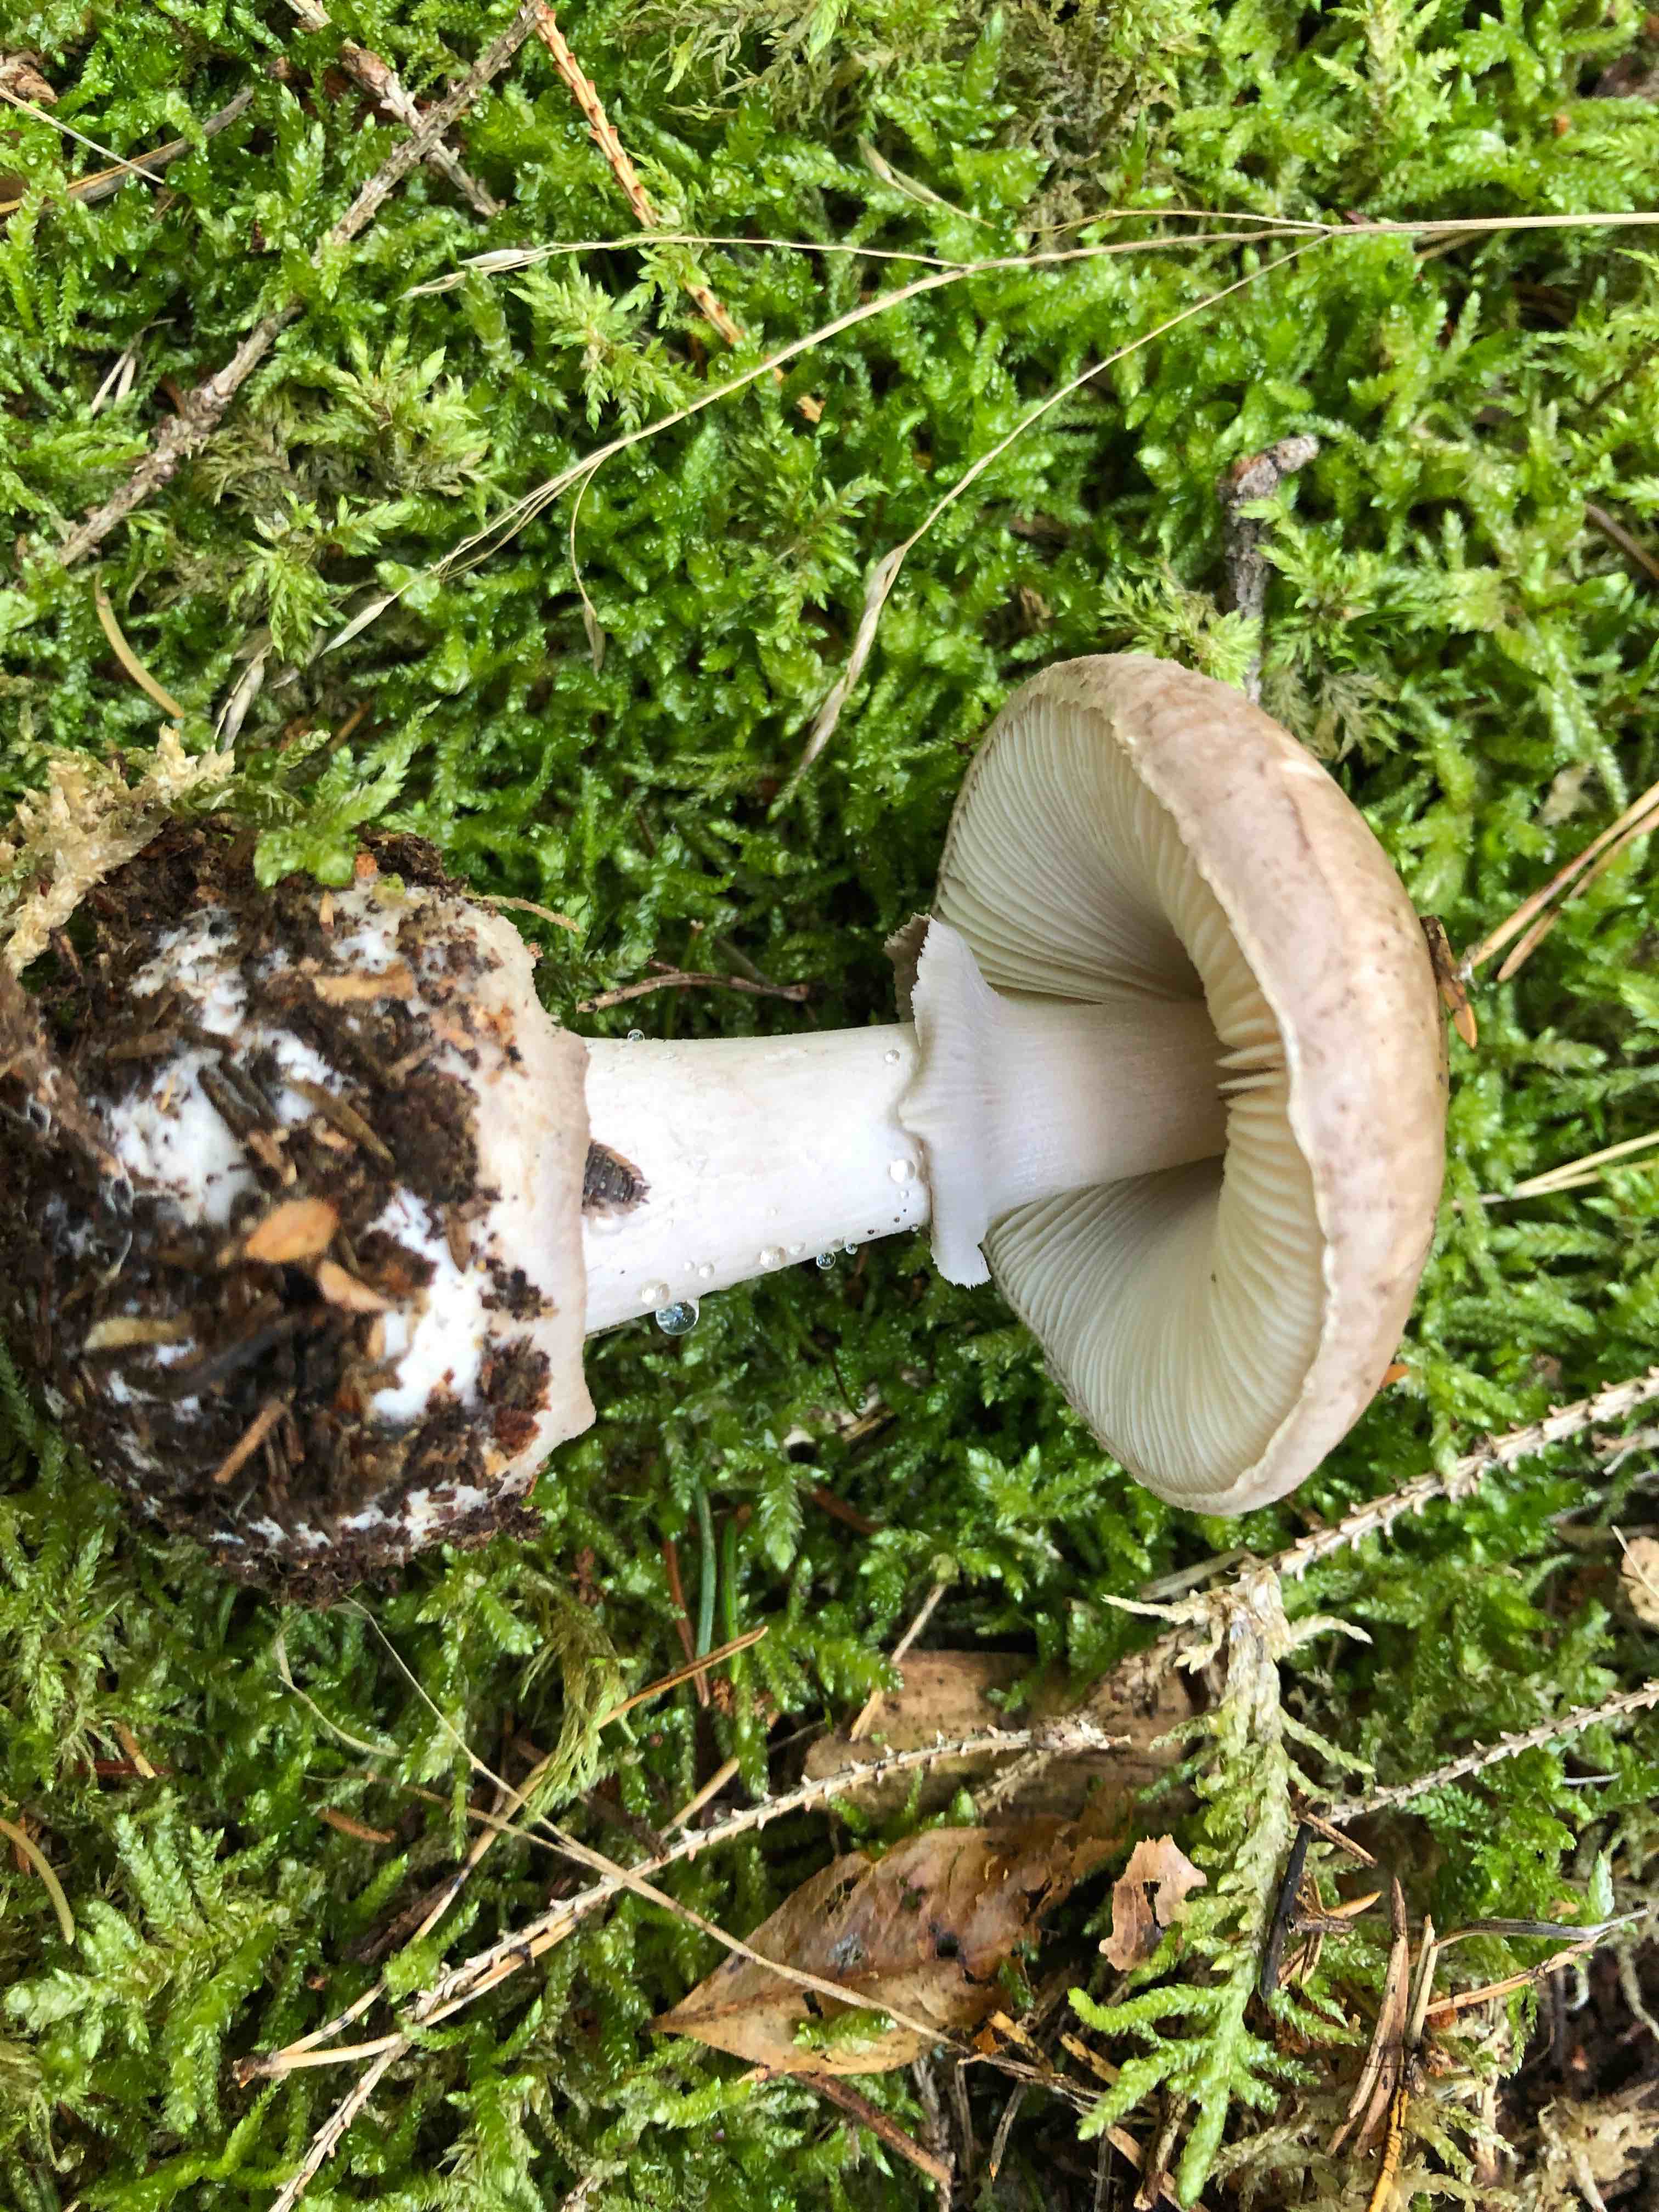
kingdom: Fungi
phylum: Basidiomycota
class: Agaricomycetes
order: Agaricales
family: Amanitaceae
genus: Amanita
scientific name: Amanita porphyria
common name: porfyr-fluesvamp
